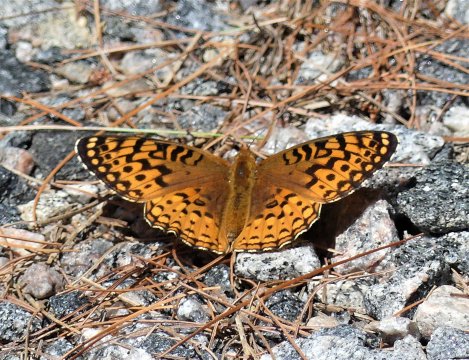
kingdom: Animalia
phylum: Arthropoda
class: Insecta
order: Lepidoptera
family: Nymphalidae
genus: Speyeria
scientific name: Speyeria aphrodite
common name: Aphrodite Fritillary
